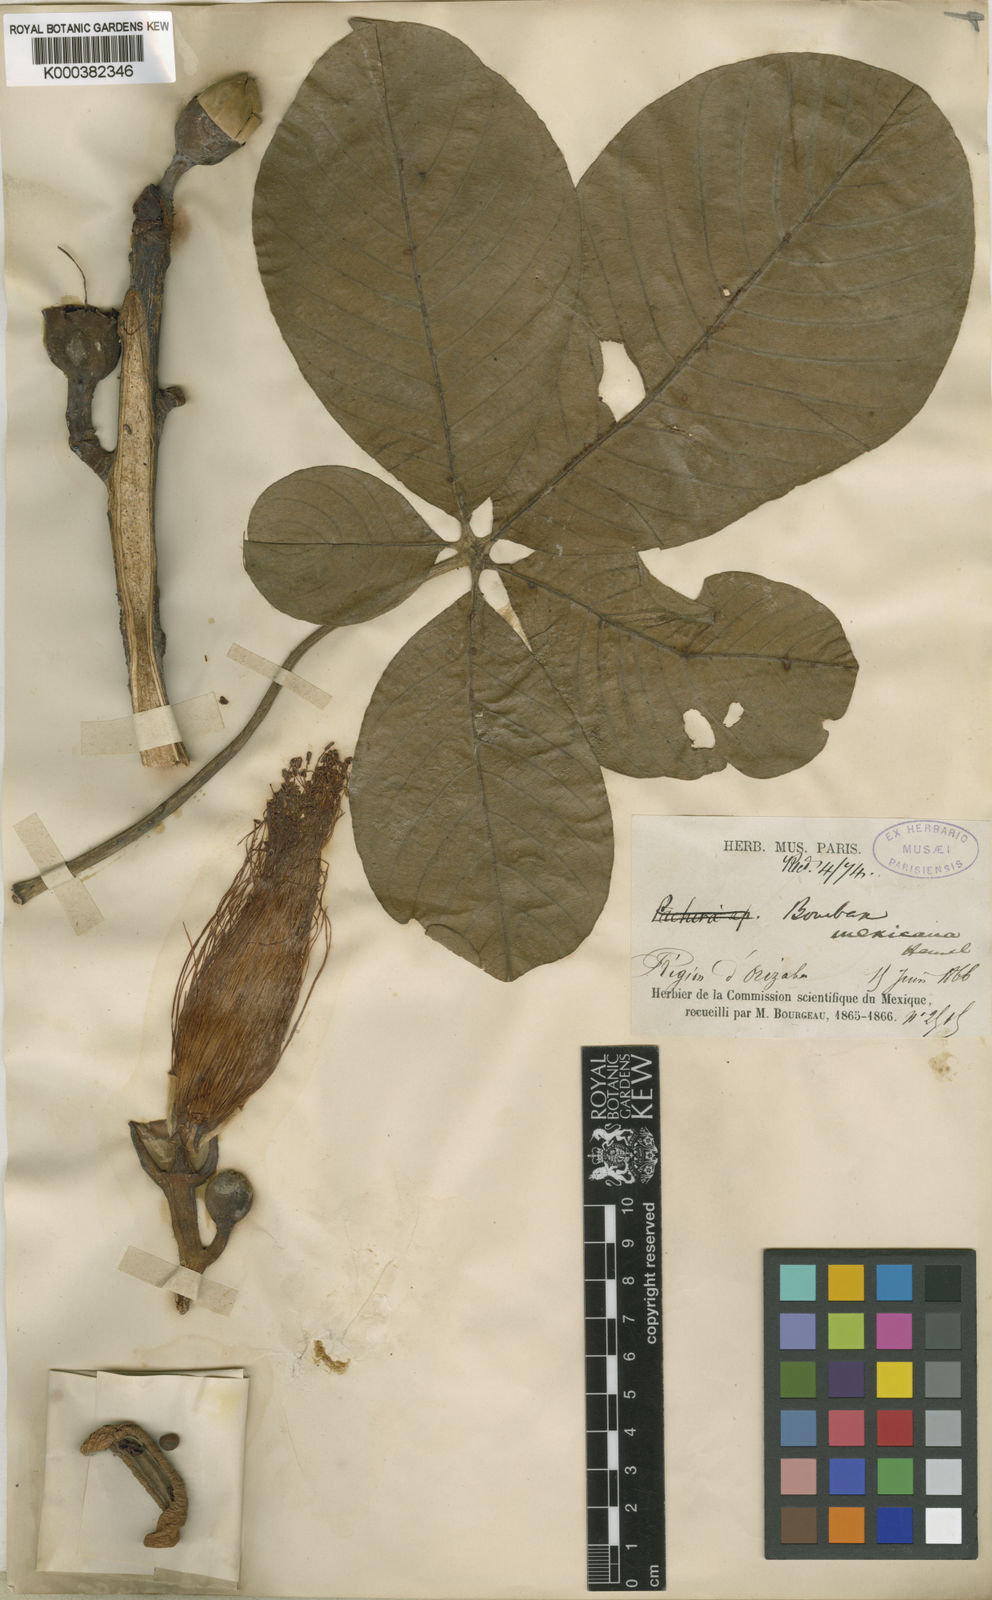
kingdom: Plantae
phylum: Tracheophyta
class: Magnoliopsida
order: Malvales
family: Malvaceae
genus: Pseudobombax
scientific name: Pseudobombax ellipticum
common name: Shaving-brush-tree
